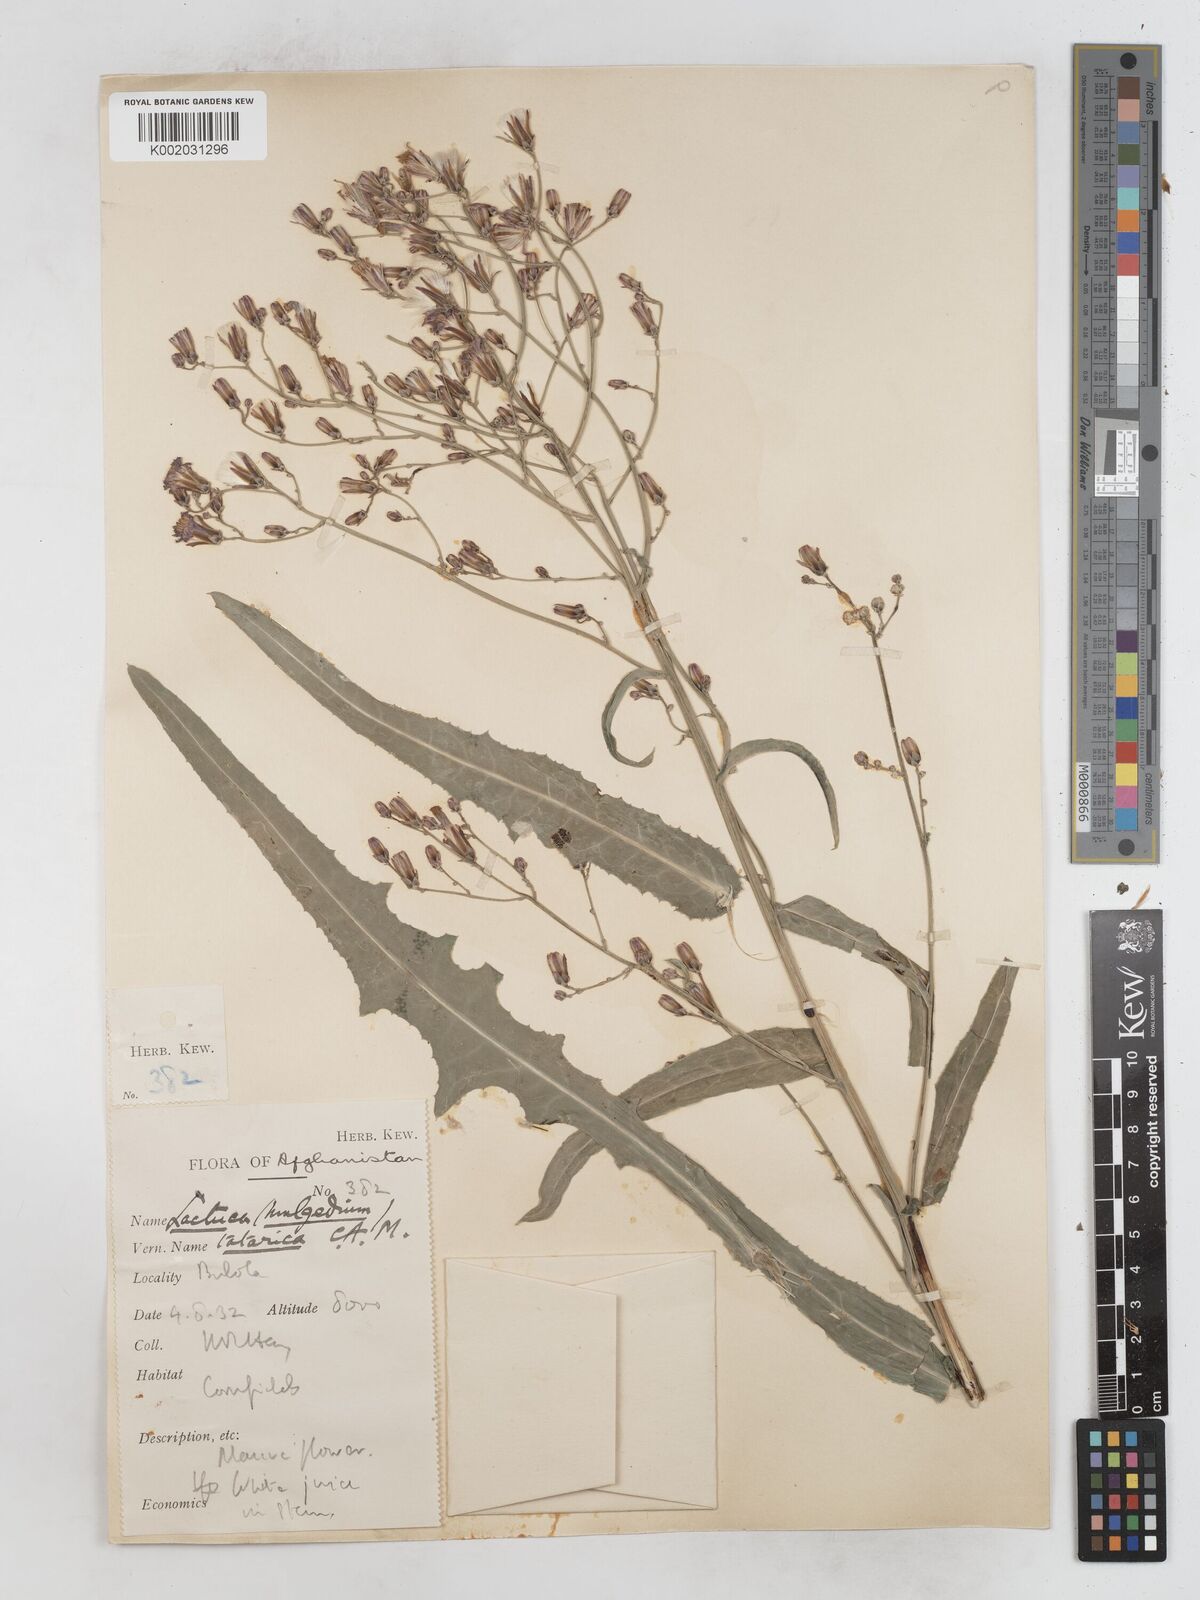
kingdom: Plantae
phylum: Tracheophyta
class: Magnoliopsida
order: Asterales
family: Asteraceae
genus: Lactuca
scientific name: Lactuca tatarica
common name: Blue lettuce
